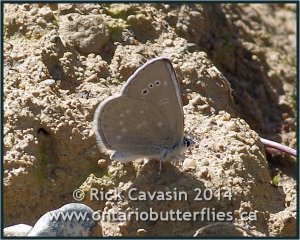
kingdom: Animalia
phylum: Arthropoda
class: Insecta
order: Lepidoptera
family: Lycaenidae
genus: Glaucopsyche
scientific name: Glaucopsyche lygdamus
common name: Silvery Blue
